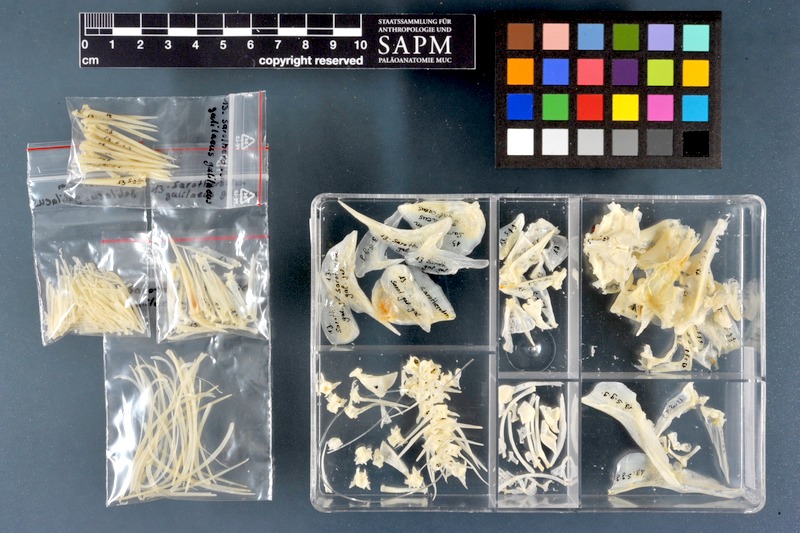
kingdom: Animalia
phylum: Chordata
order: Perciformes
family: Cichlidae
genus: Sarotherodon
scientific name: Sarotherodon galilaeus
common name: Mango tilapia
